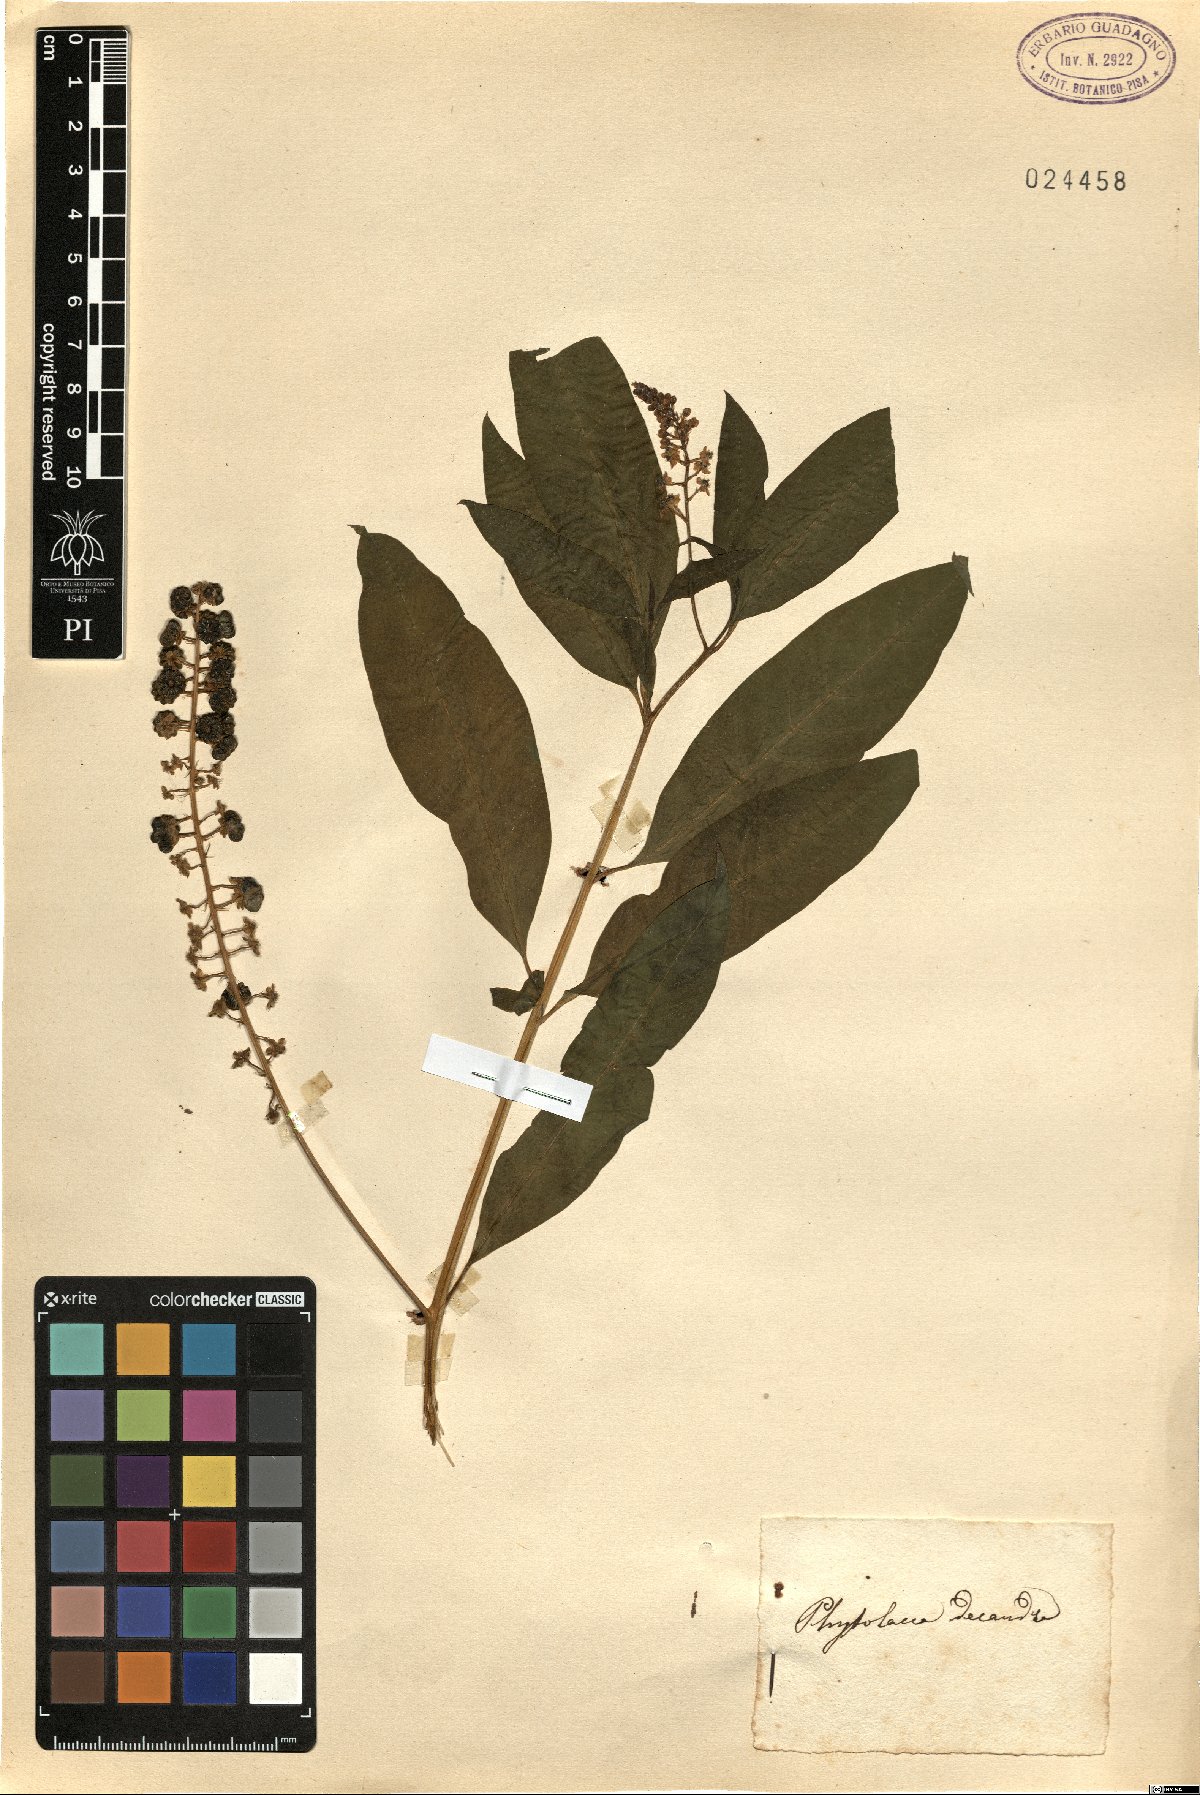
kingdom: Plantae
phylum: Tracheophyta
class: Magnoliopsida
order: Caryophyllales
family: Phytolaccaceae
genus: Phytolacca
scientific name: Phytolacca americana
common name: American pokeweed
